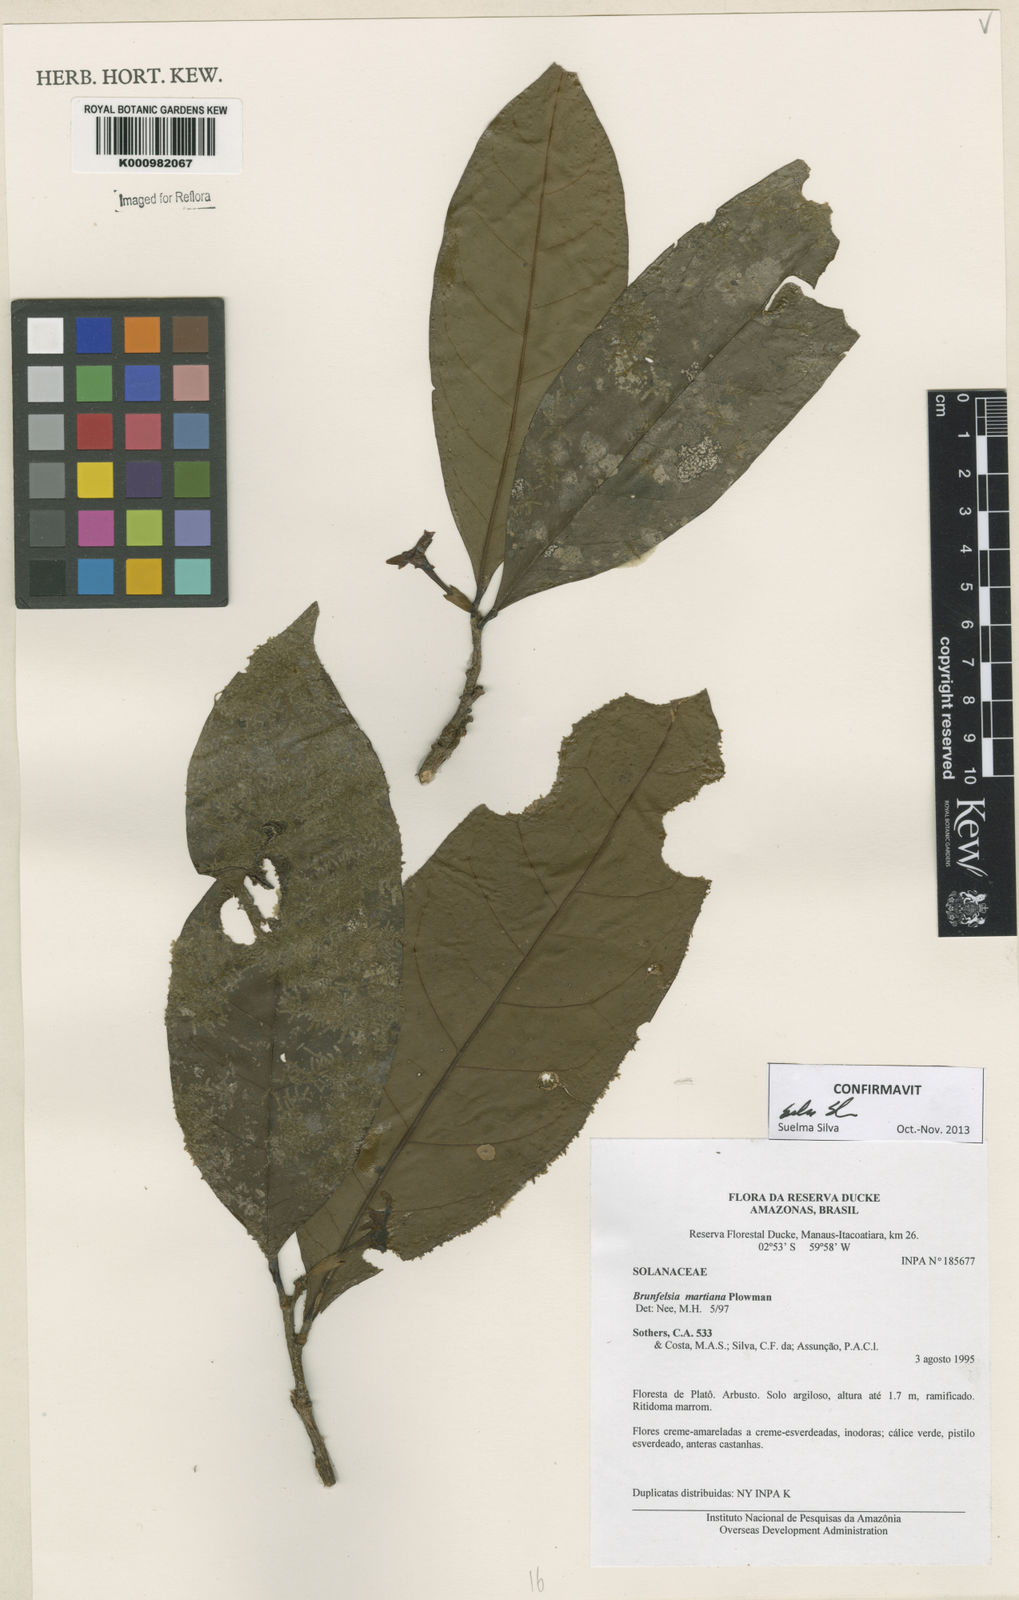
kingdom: Plantae
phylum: Tracheophyta
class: Magnoliopsida
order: Solanales
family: Solanaceae
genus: Brunfelsia
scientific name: Brunfelsia martiana
